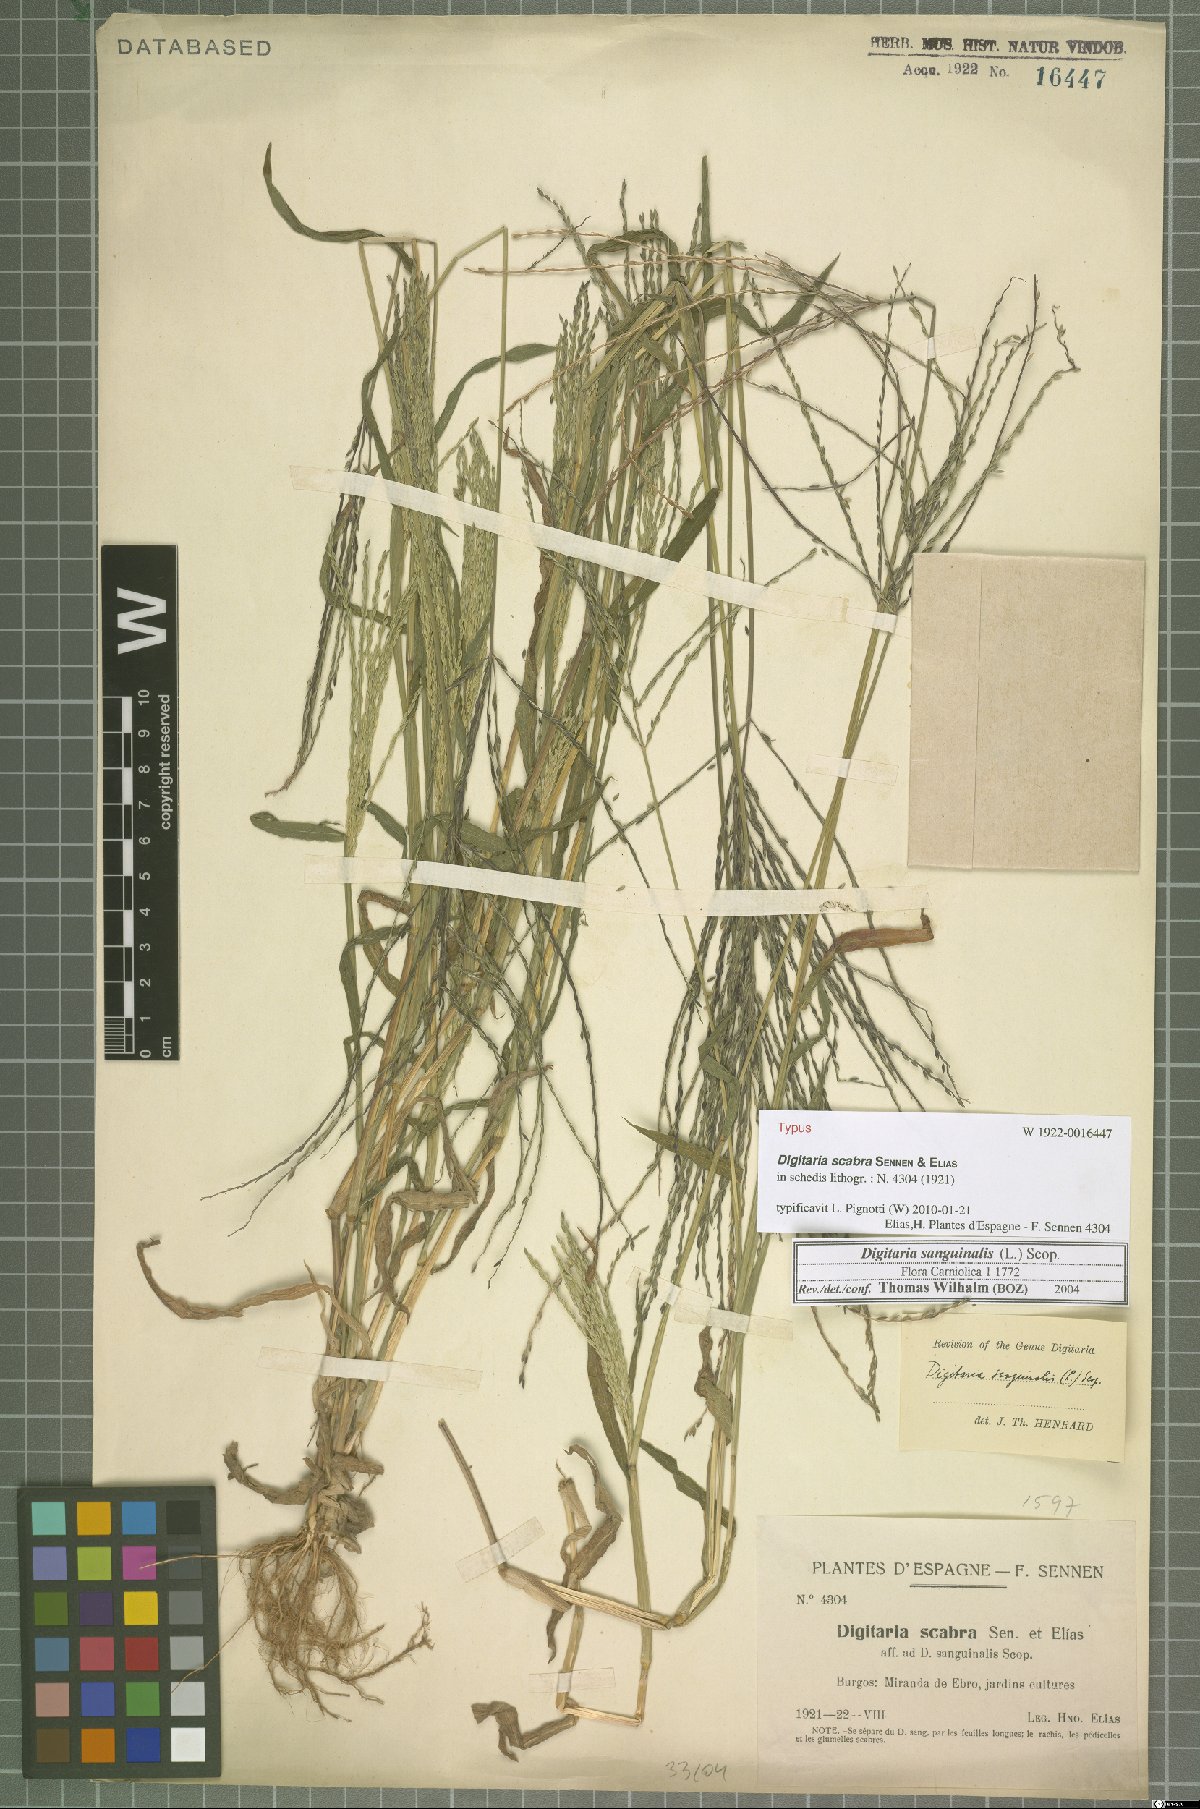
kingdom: Plantae
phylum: Tracheophyta
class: Liliopsida
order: Poales
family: Poaceae
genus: Digitaria
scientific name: Digitaria sanguinalis
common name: Hairy crabgrass
